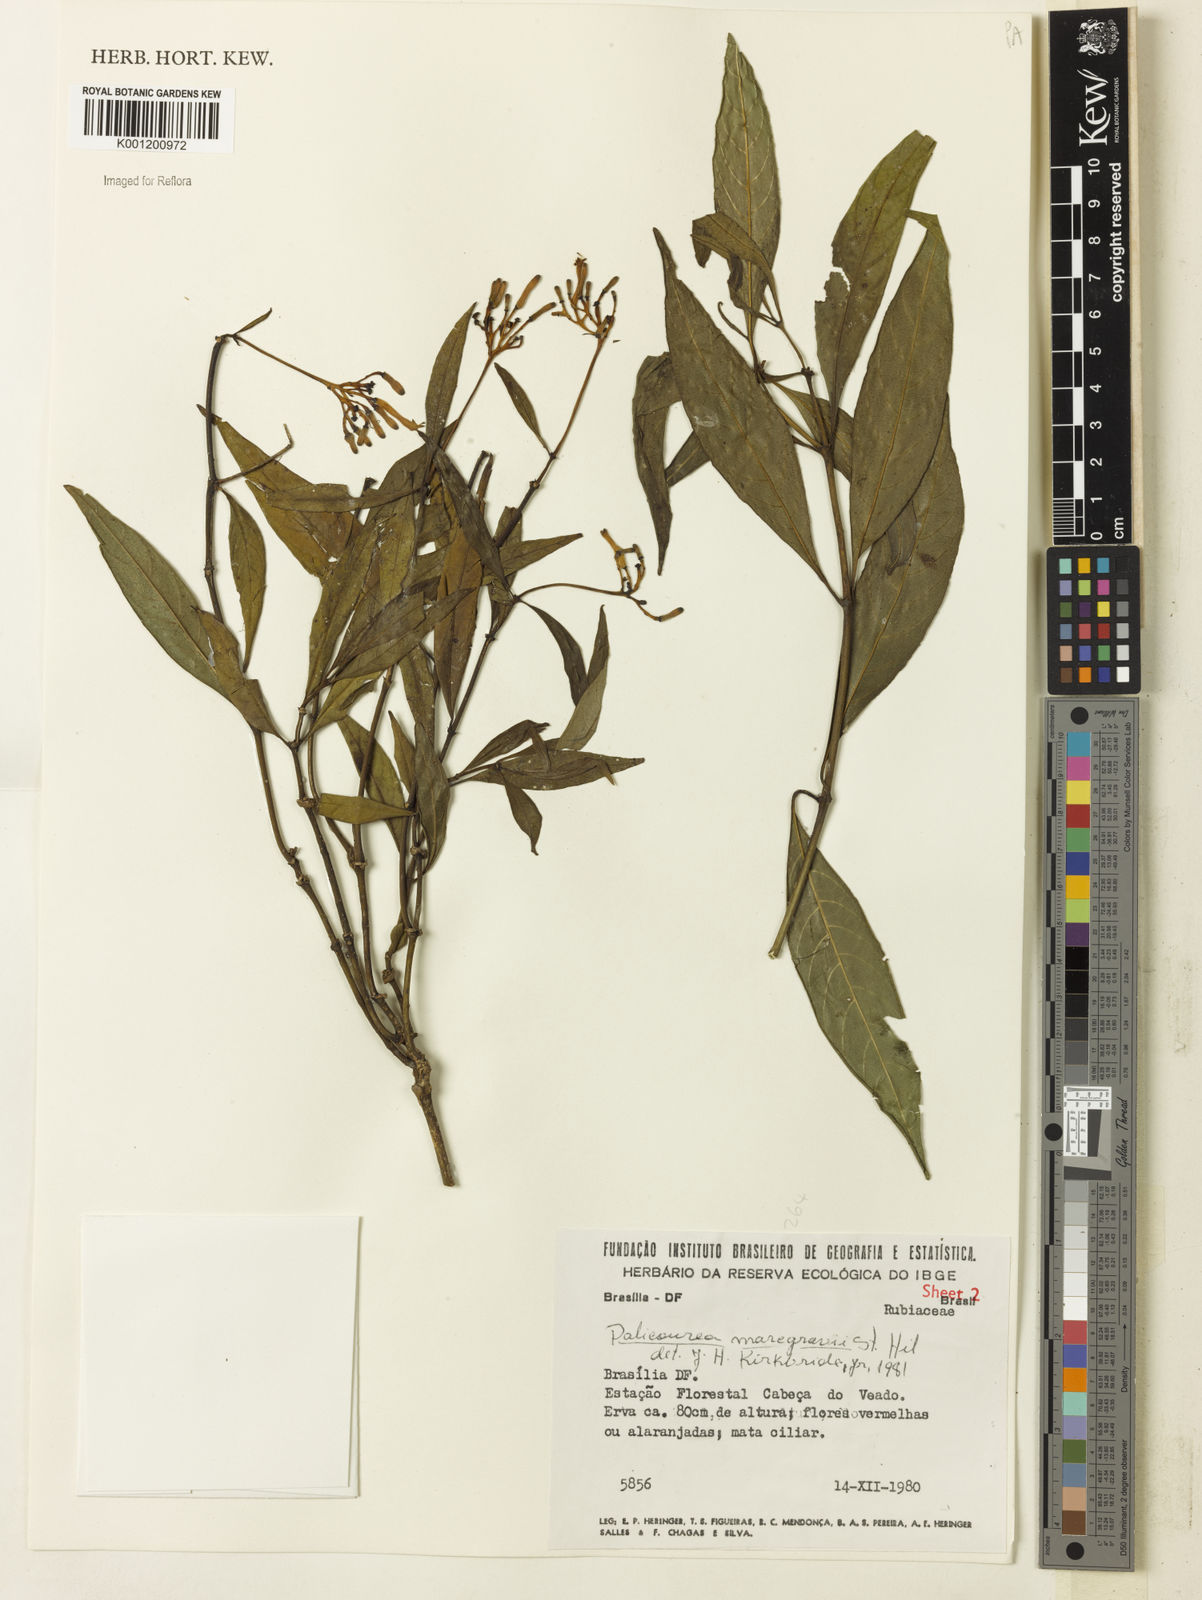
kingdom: Plantae
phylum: Tracheophyta
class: Magnoliopsida
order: Gentianales
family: Rubiaceae
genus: Palicourea
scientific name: Palicourea marcgravii
